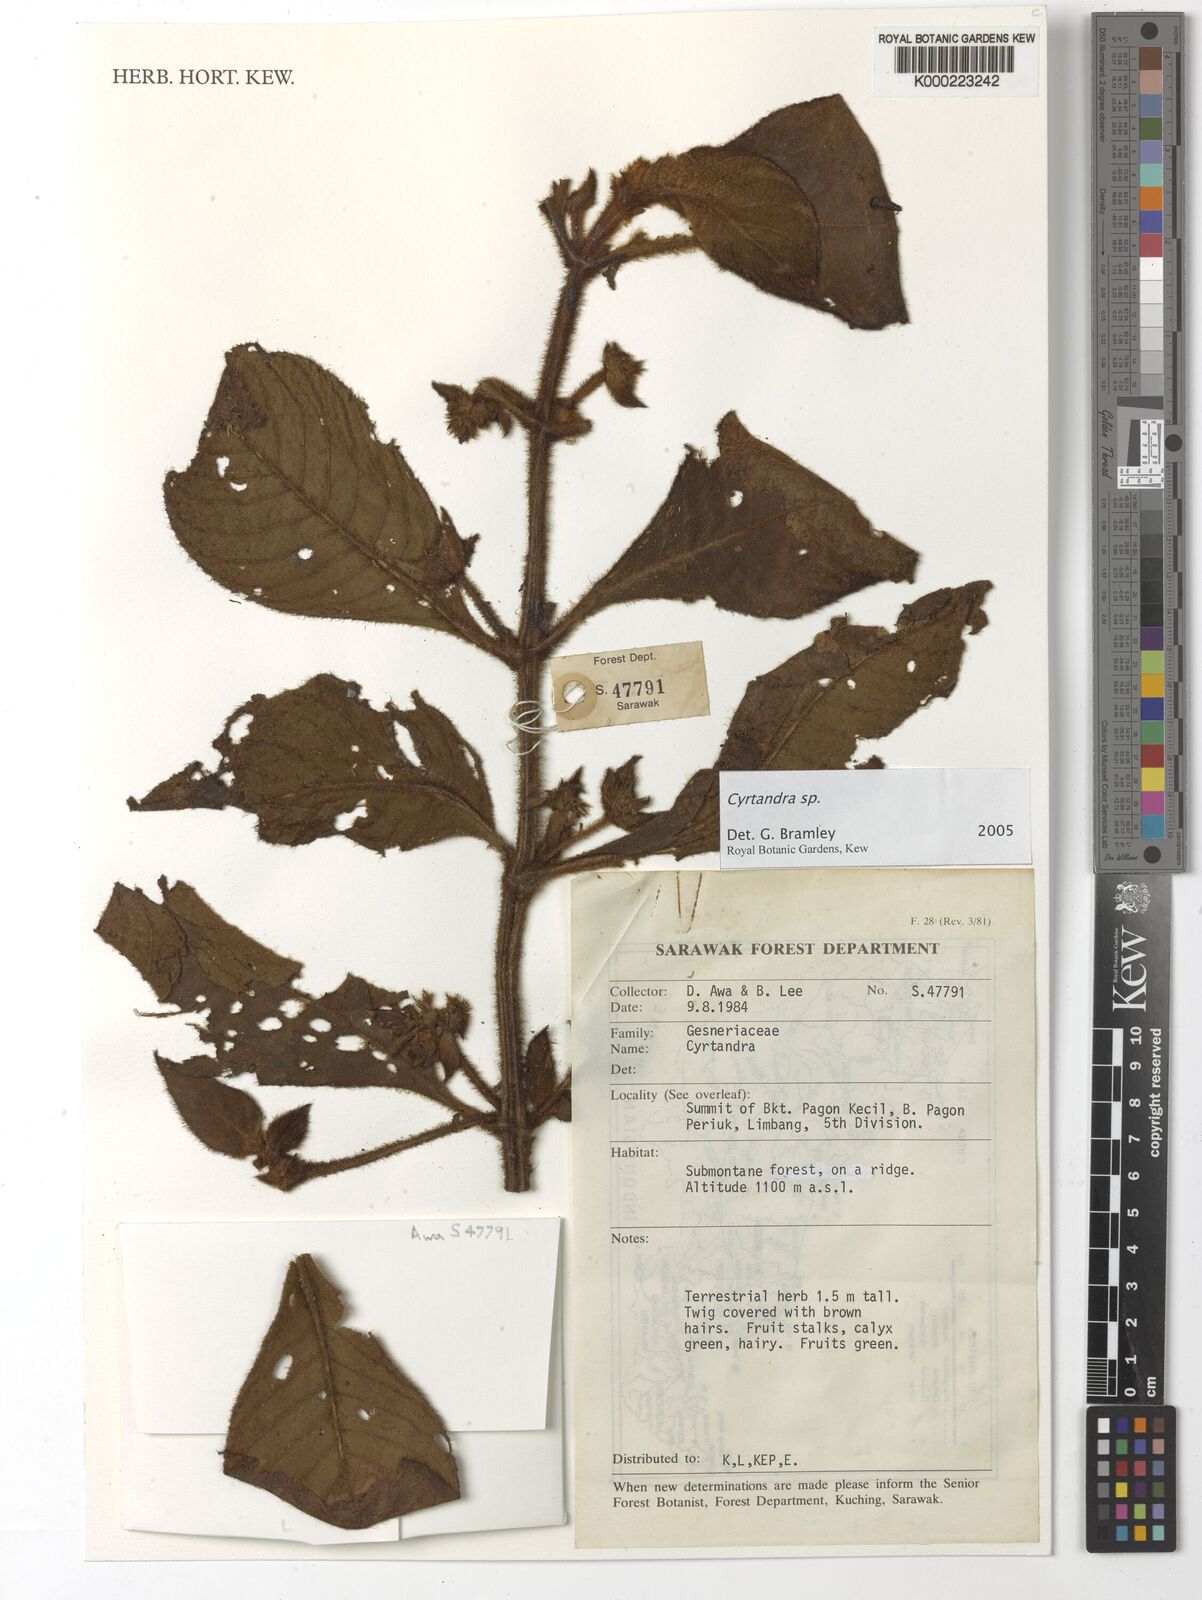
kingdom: Plantae
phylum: Tracheophyta
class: Magnoliopsida
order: Lamiales
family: Gesneriaceae
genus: Cyrtandra
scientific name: Cyrtandra
